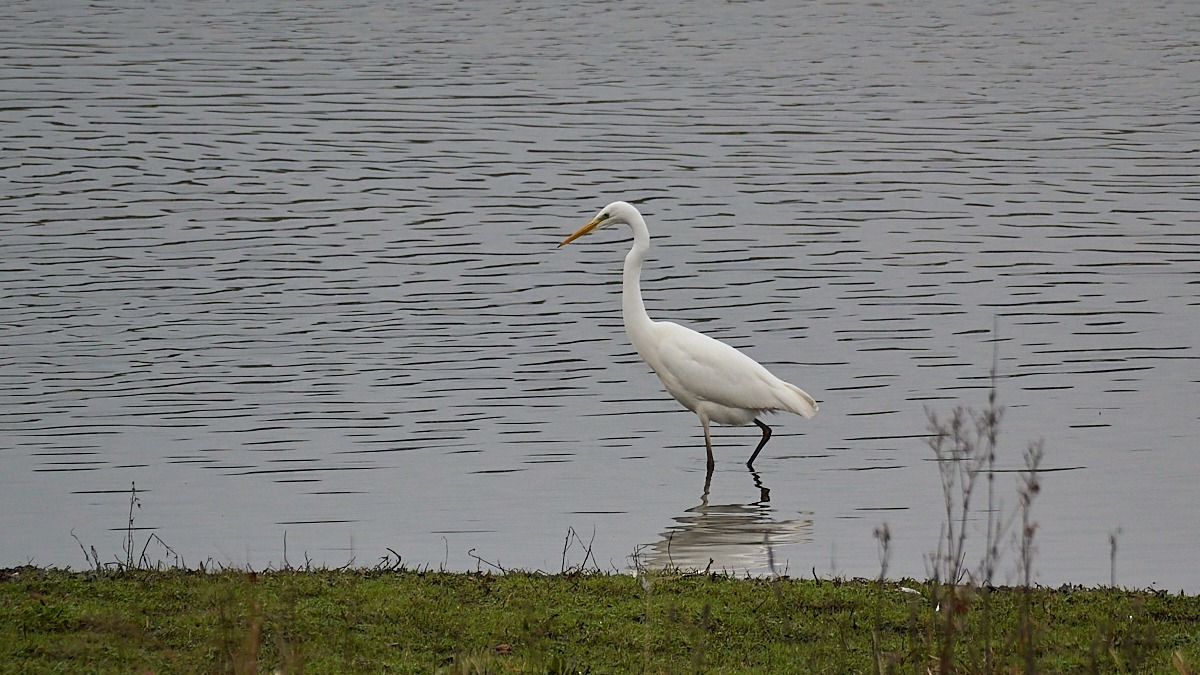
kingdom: Animalia
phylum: Chordata
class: Aves
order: Pelecaniformes
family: Ardeidae
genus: Ardea
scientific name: Ardea alba
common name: Sølvhejre
